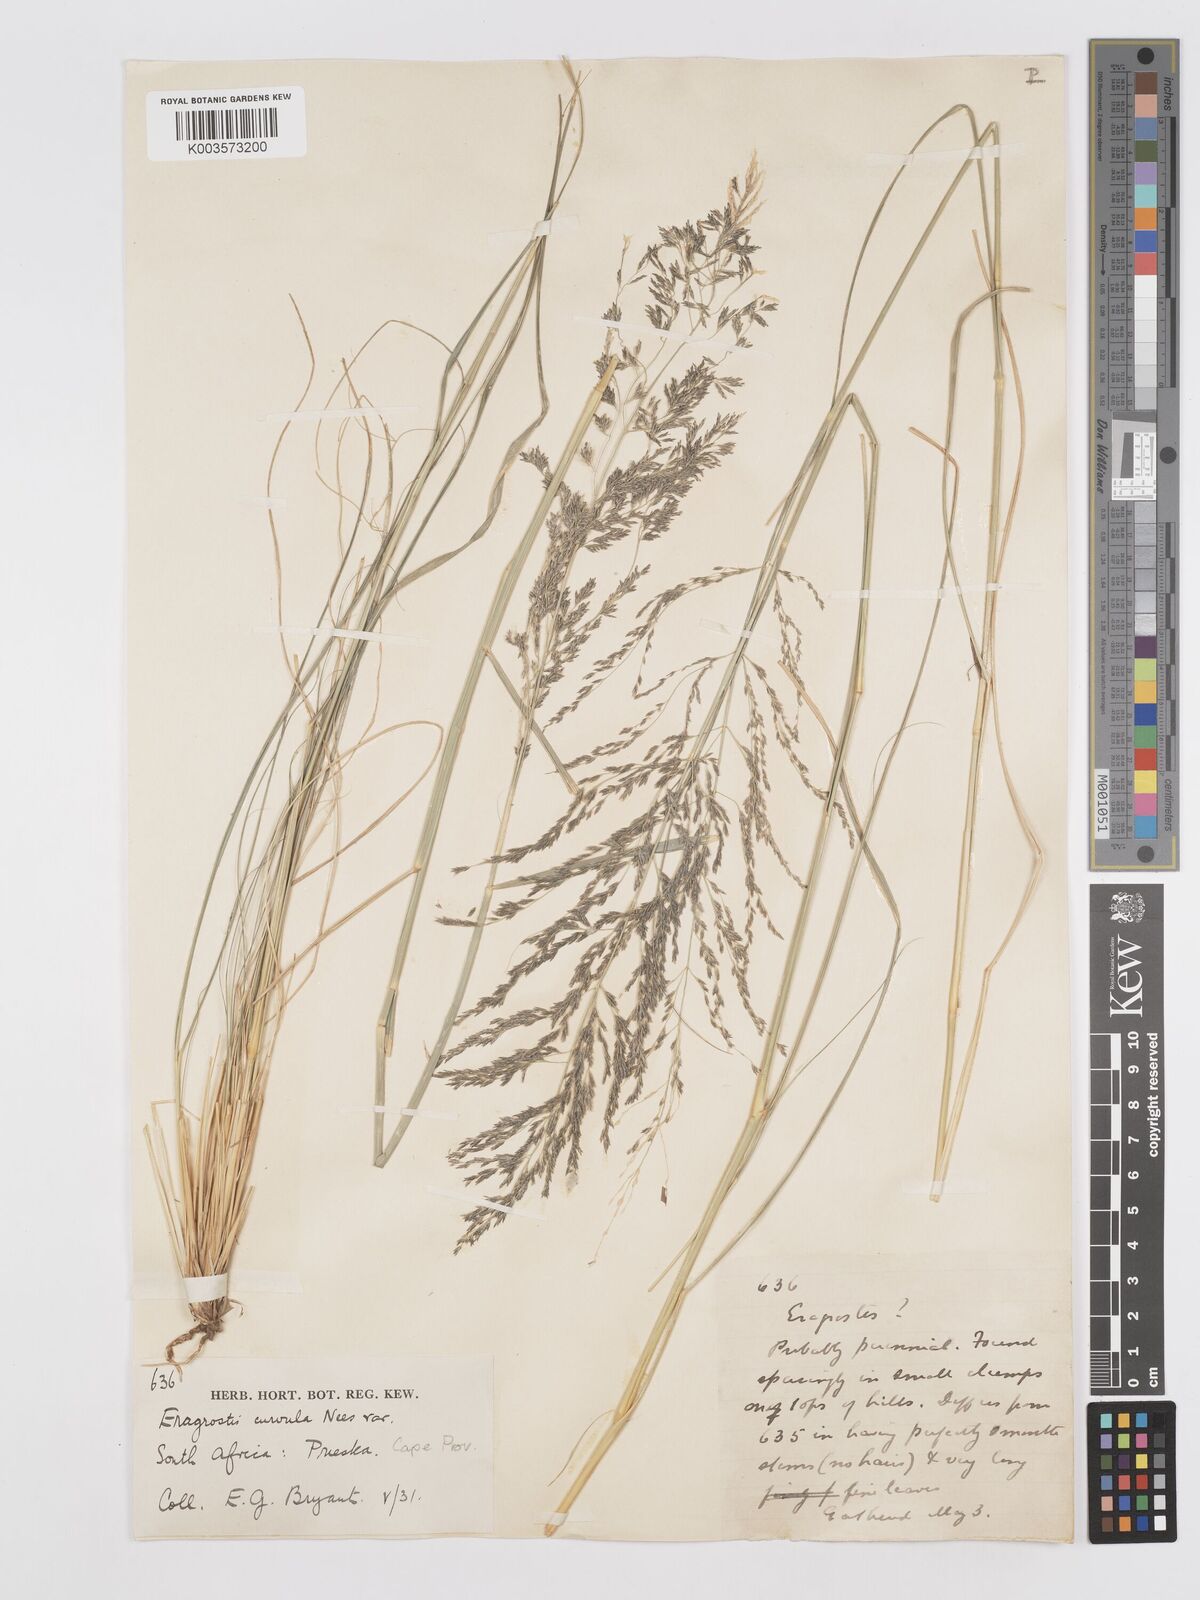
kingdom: Plantae
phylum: Tracheophyta
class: Liliopsida
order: Poales
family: Poaceae
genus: Eragrostis
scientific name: Eragrostis curvula
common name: African love-grass
